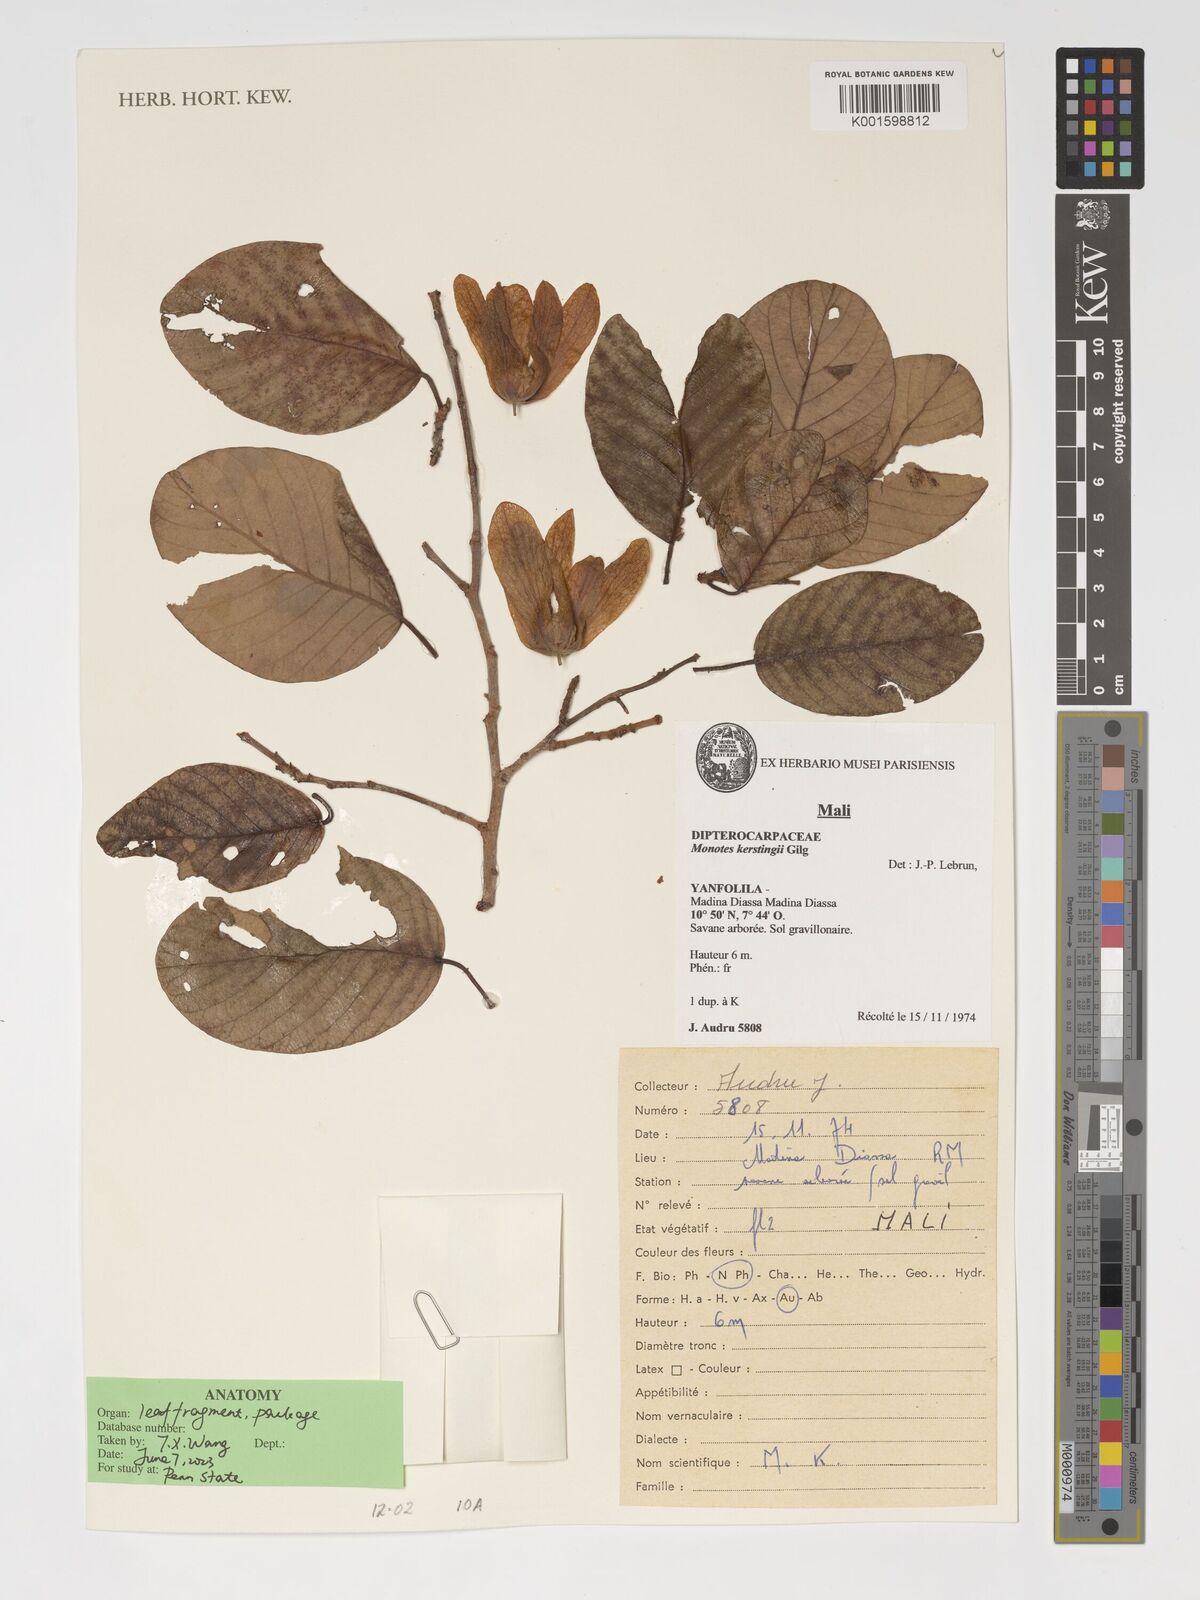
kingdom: Plantae
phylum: Tracheophyta
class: Magnoliopsida
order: Malvales
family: Dipterocarpaceae
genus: Monotes
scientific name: Monotes kerstingii
